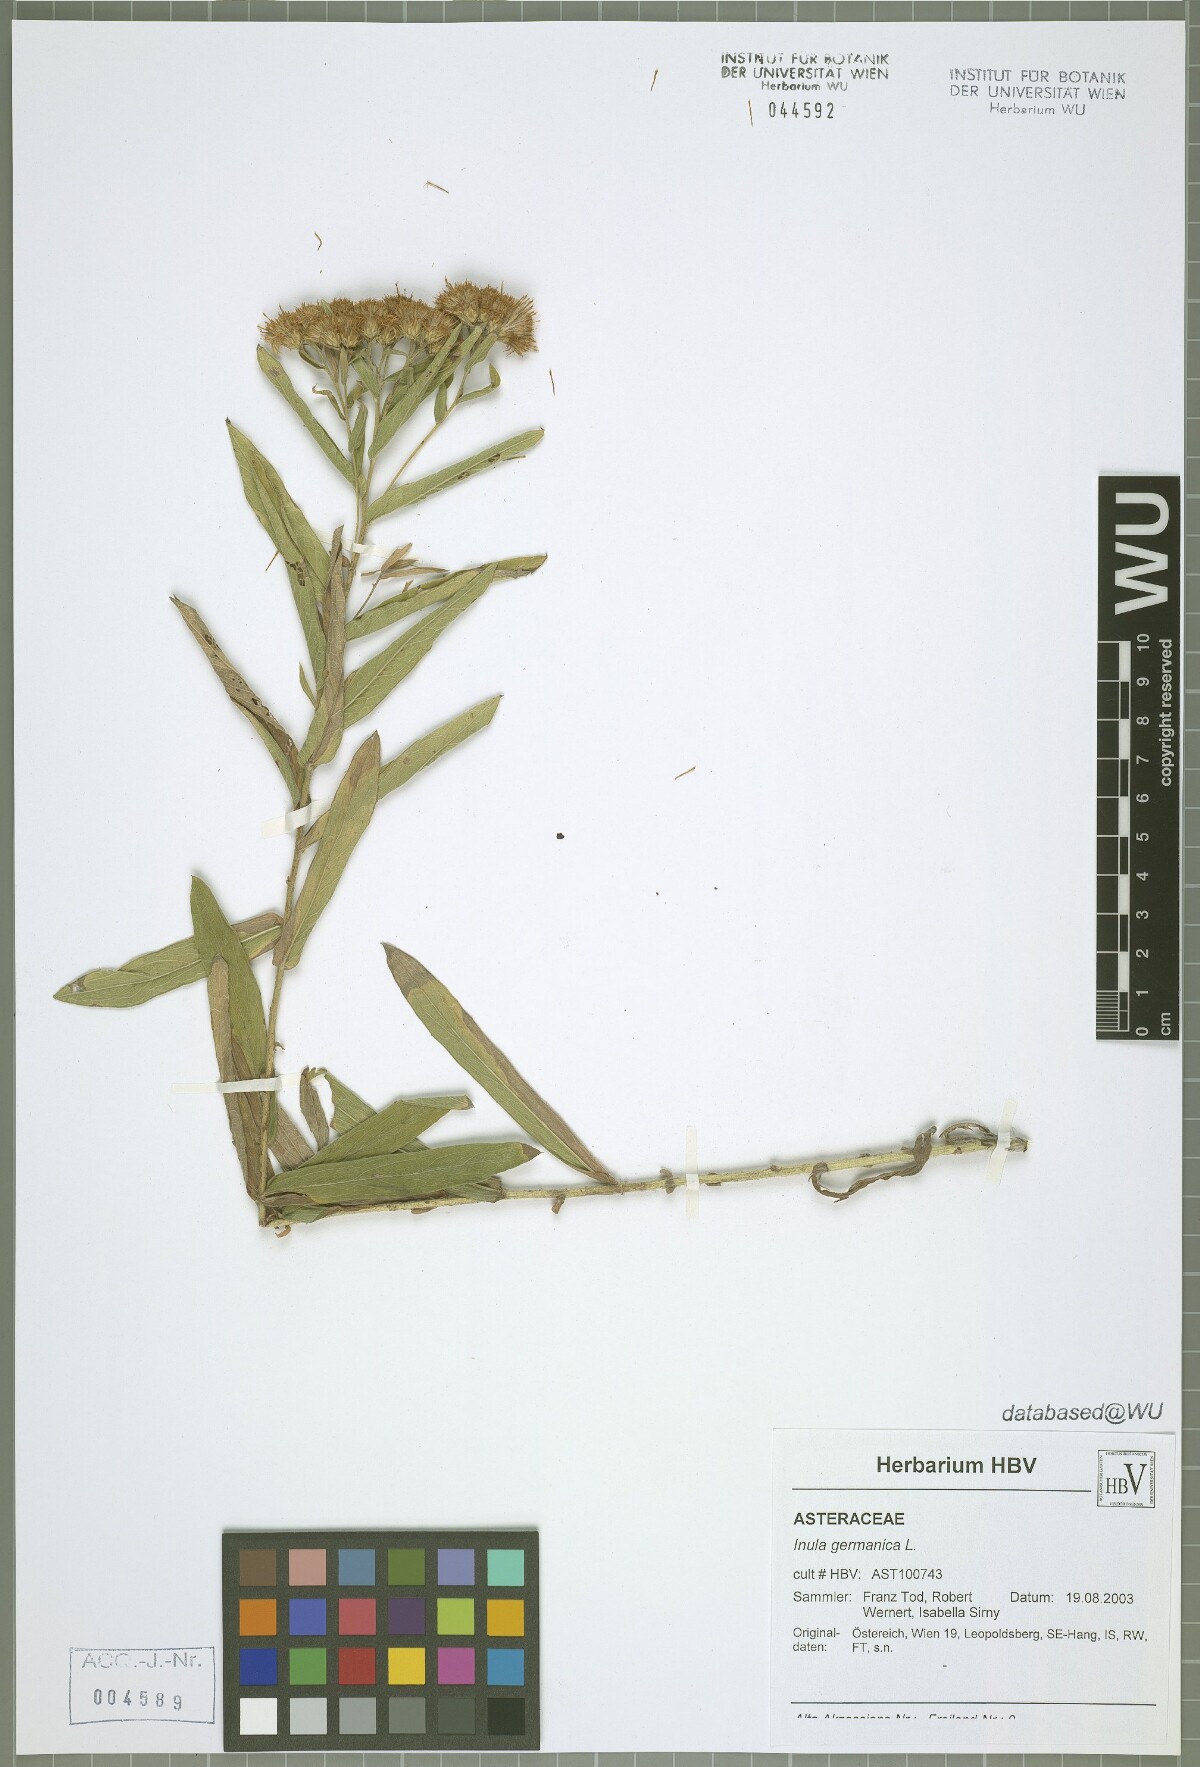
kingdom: Plantae
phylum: Tracheophyta
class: Magnoliopsida
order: Asterales
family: Asteraceae
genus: Pentanema
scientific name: Pentanema germanicum
